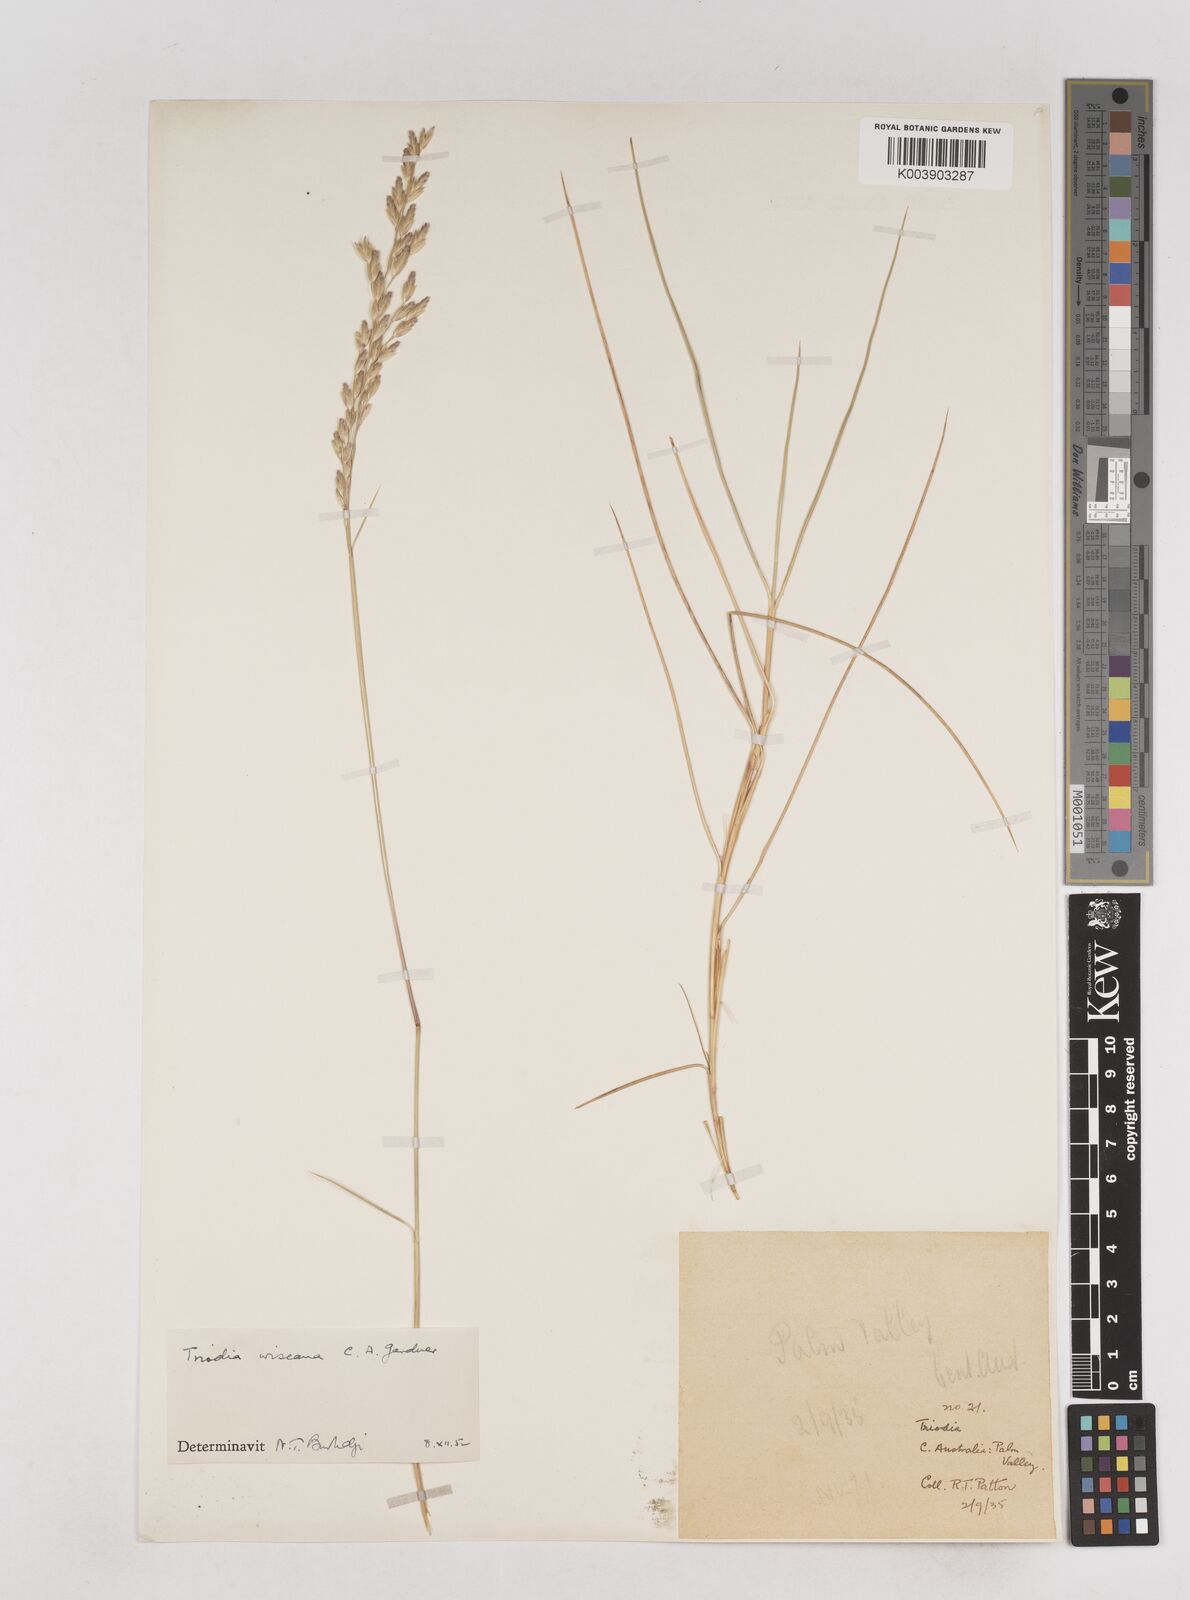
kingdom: Plantae
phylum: Tracheophyta
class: Liliopsida
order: Poales
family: Poaceae
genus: Triodia
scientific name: Triodia wiseana
